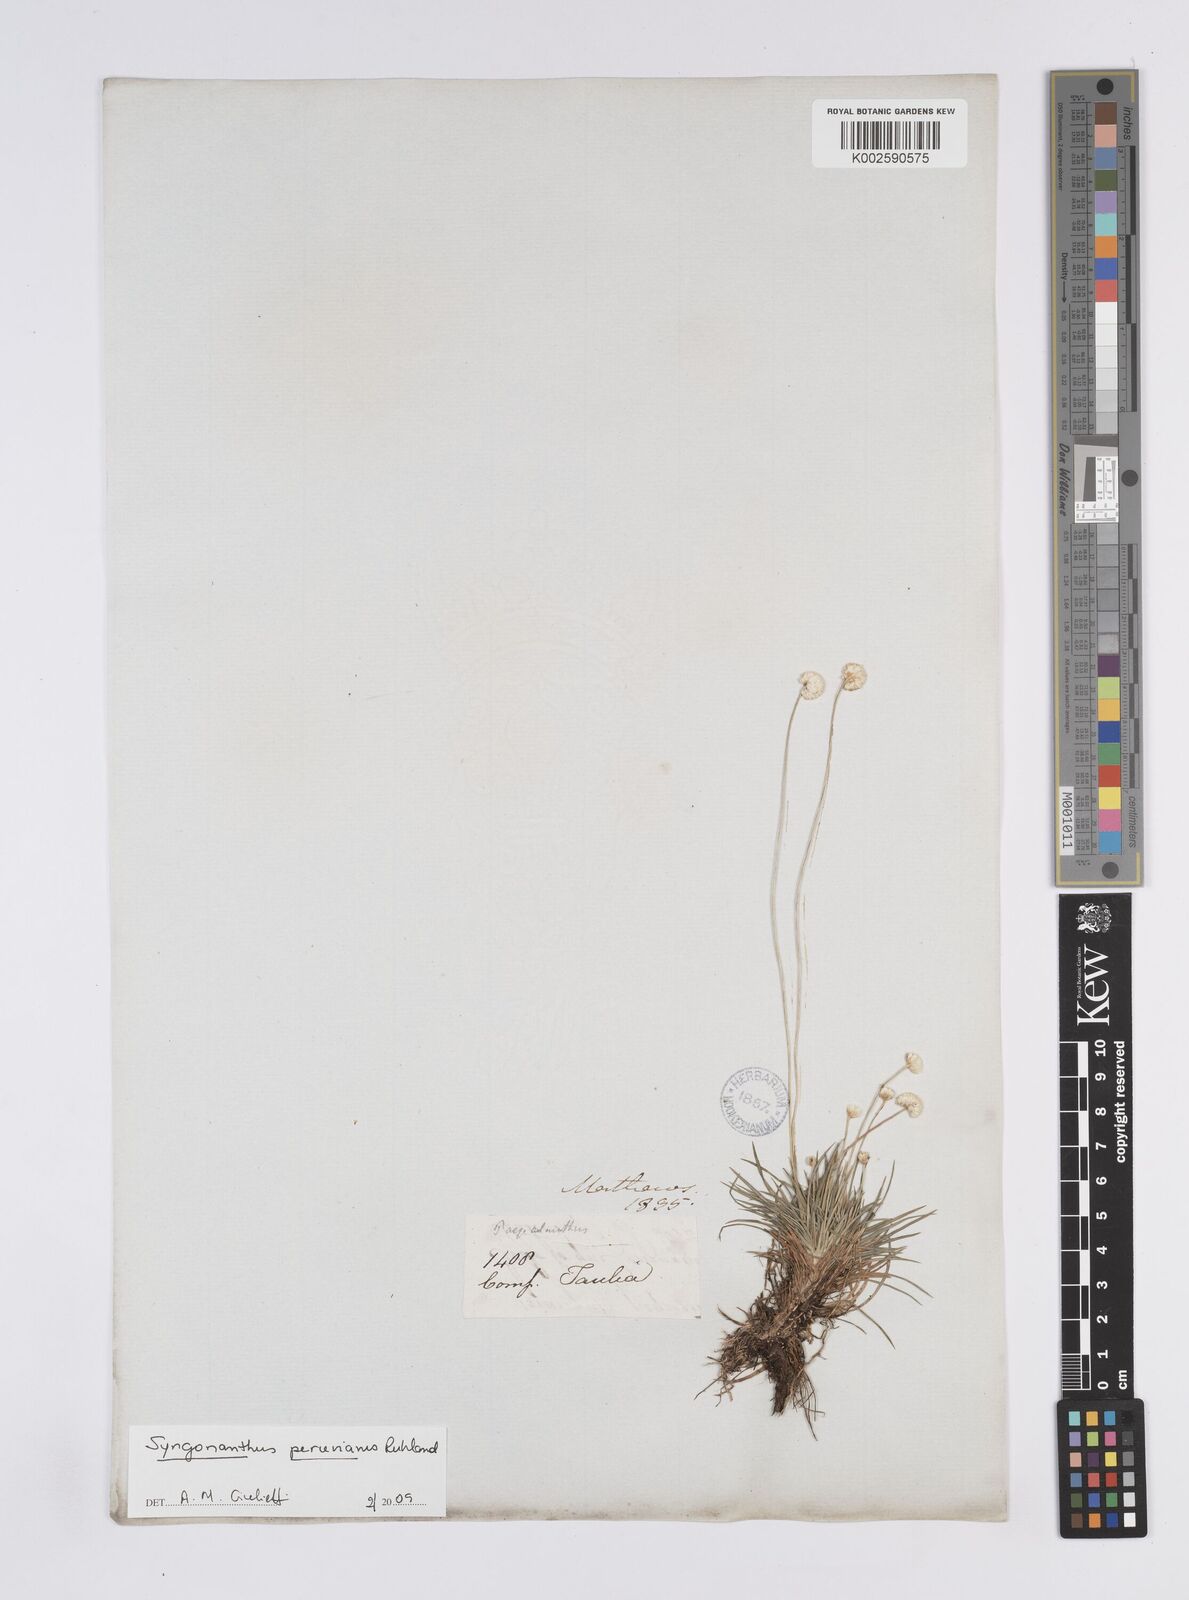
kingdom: Plantae
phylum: Tracheophyta
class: Liliopsida
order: Poales
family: Eriocaulaceae
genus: Syngonanthus
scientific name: Syngonanthus peruvianus
